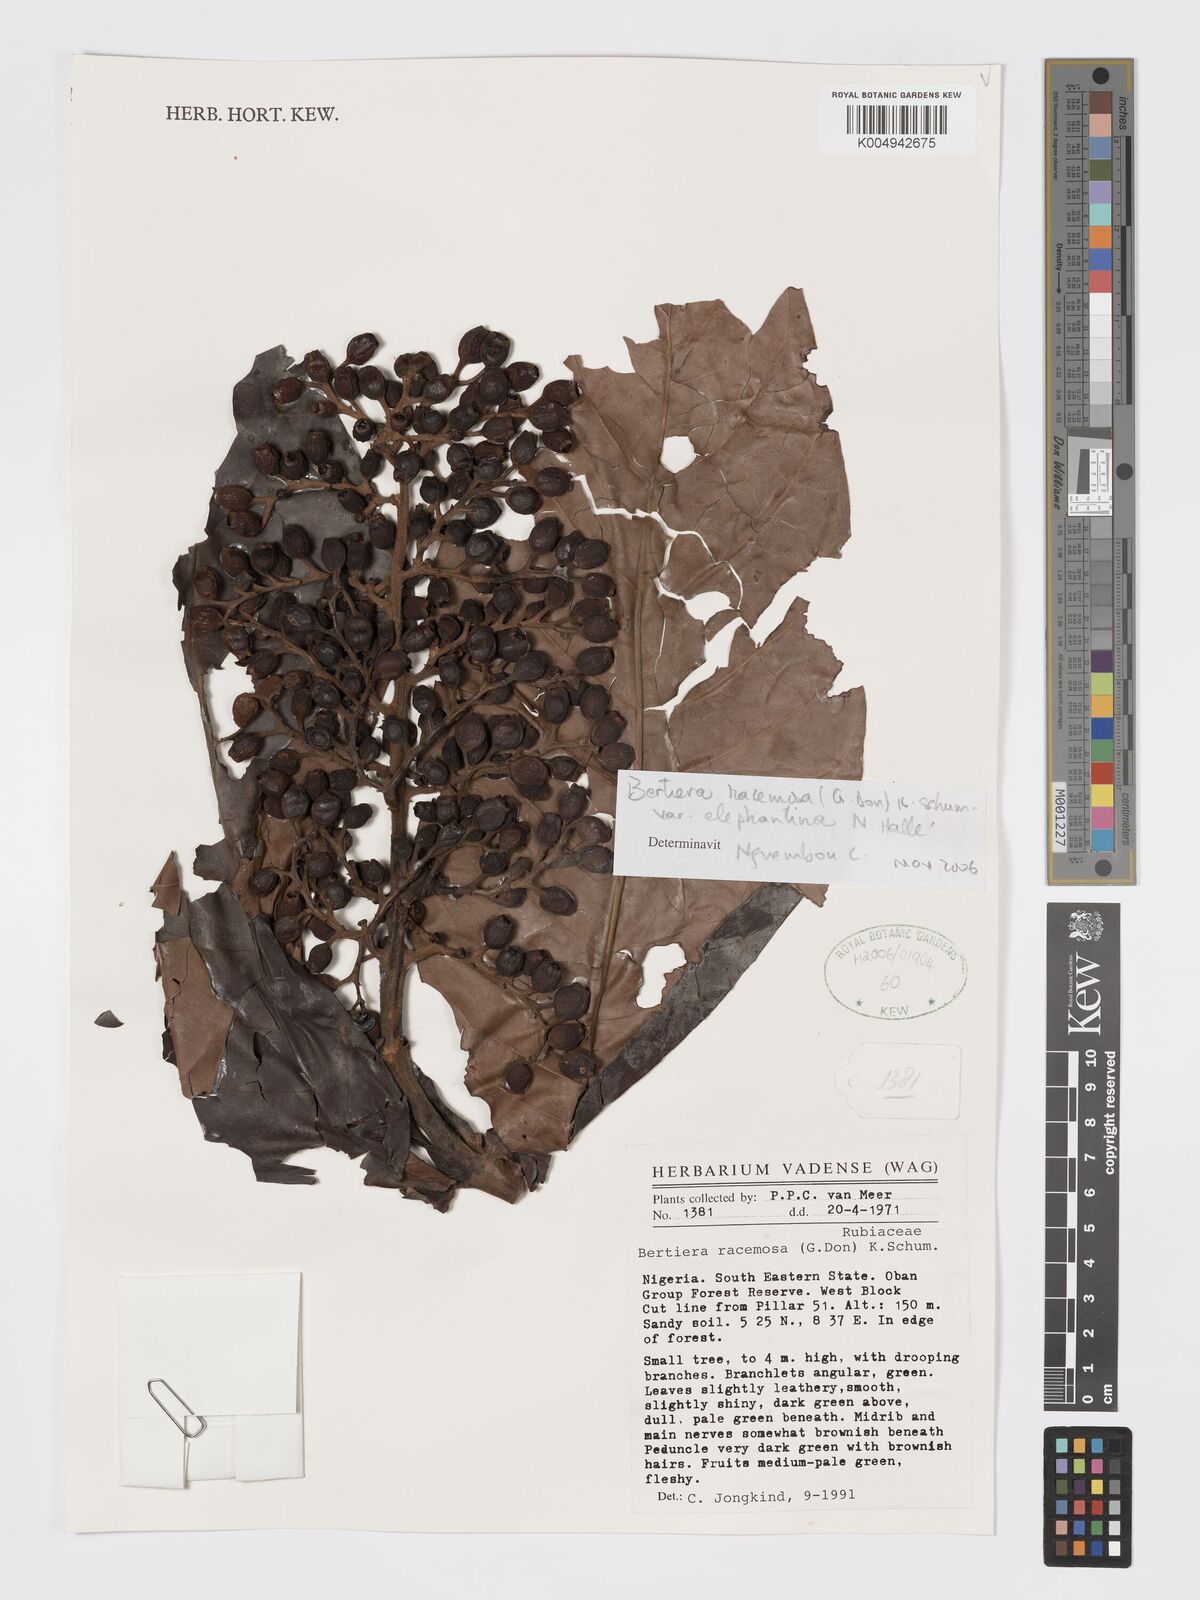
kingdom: Plantae
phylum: Tracheophyta
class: Magnoliopsida
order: Gentianales
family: Rubiaceae
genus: Bertiera
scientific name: Bertiera racemosa
